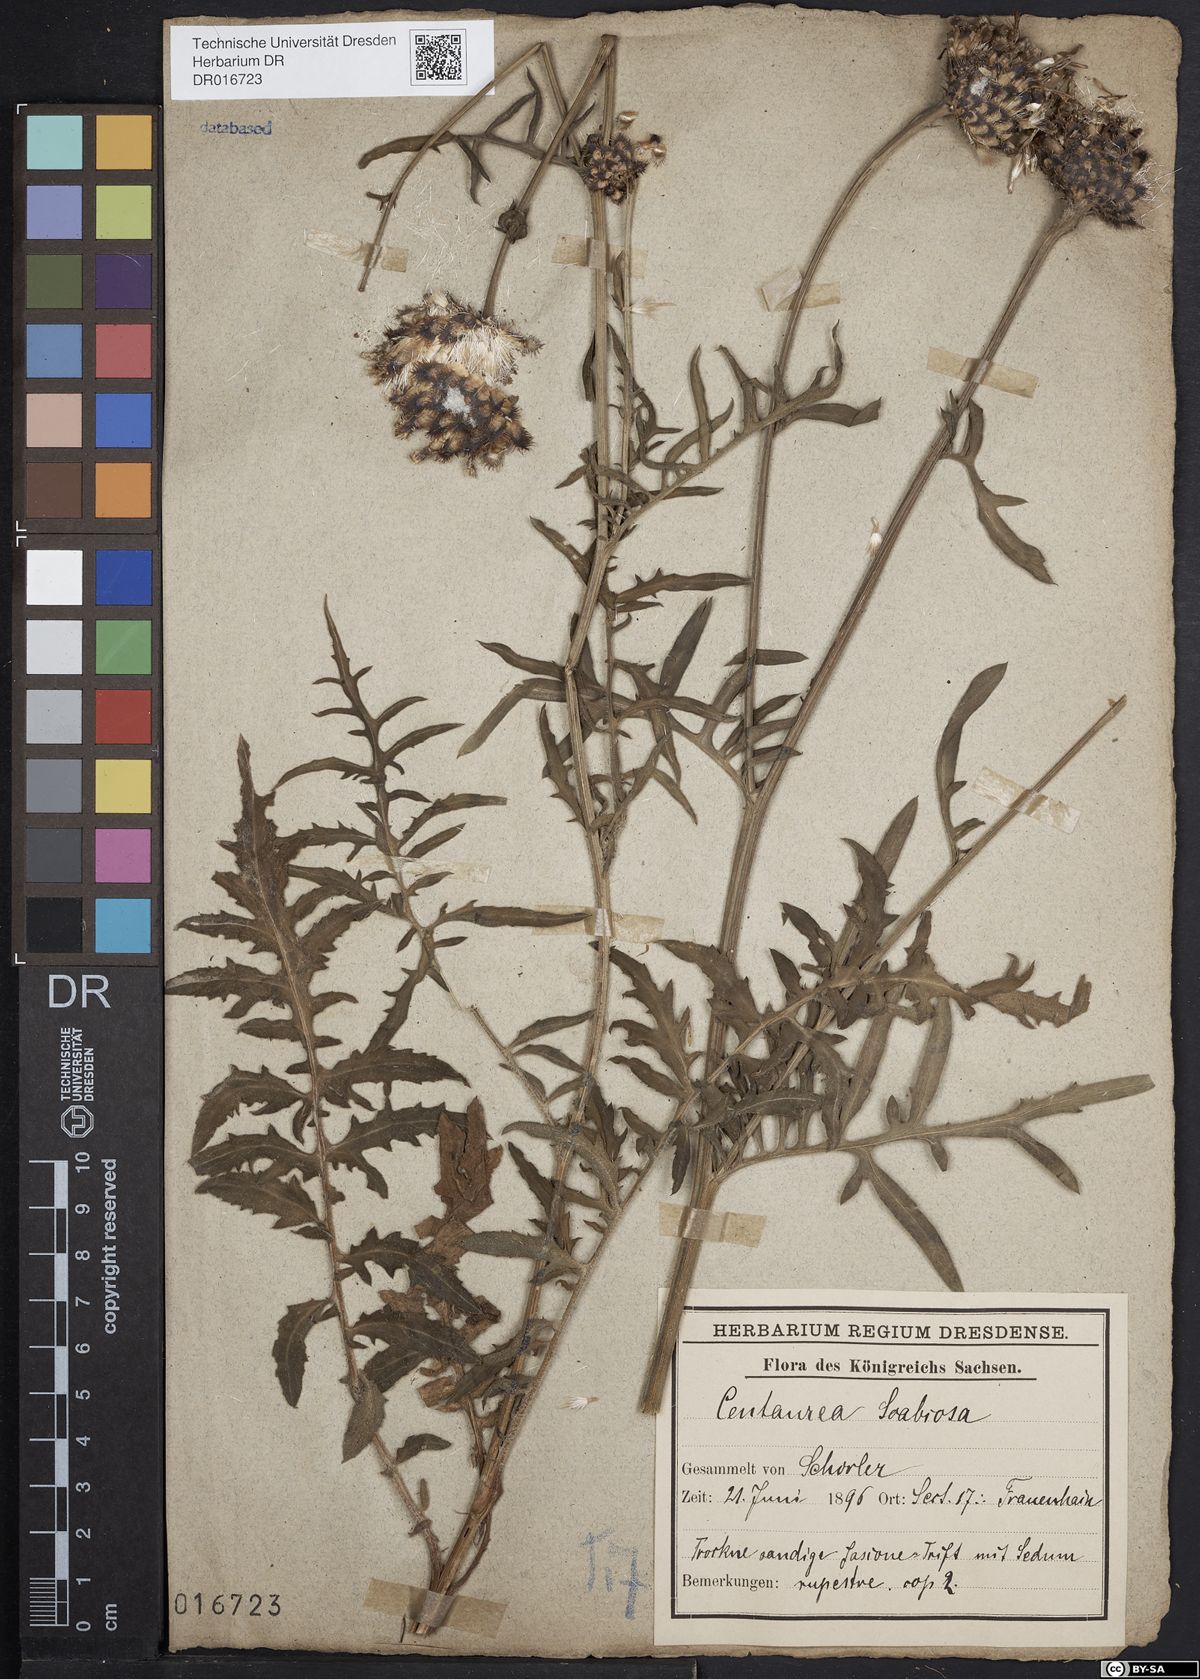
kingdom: Plantae
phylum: Tracheophyta
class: Magnoliopsida
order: Asterales
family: Asteraceae
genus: Centaurea
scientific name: Centaurea scabiosa
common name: Greater knapweed
